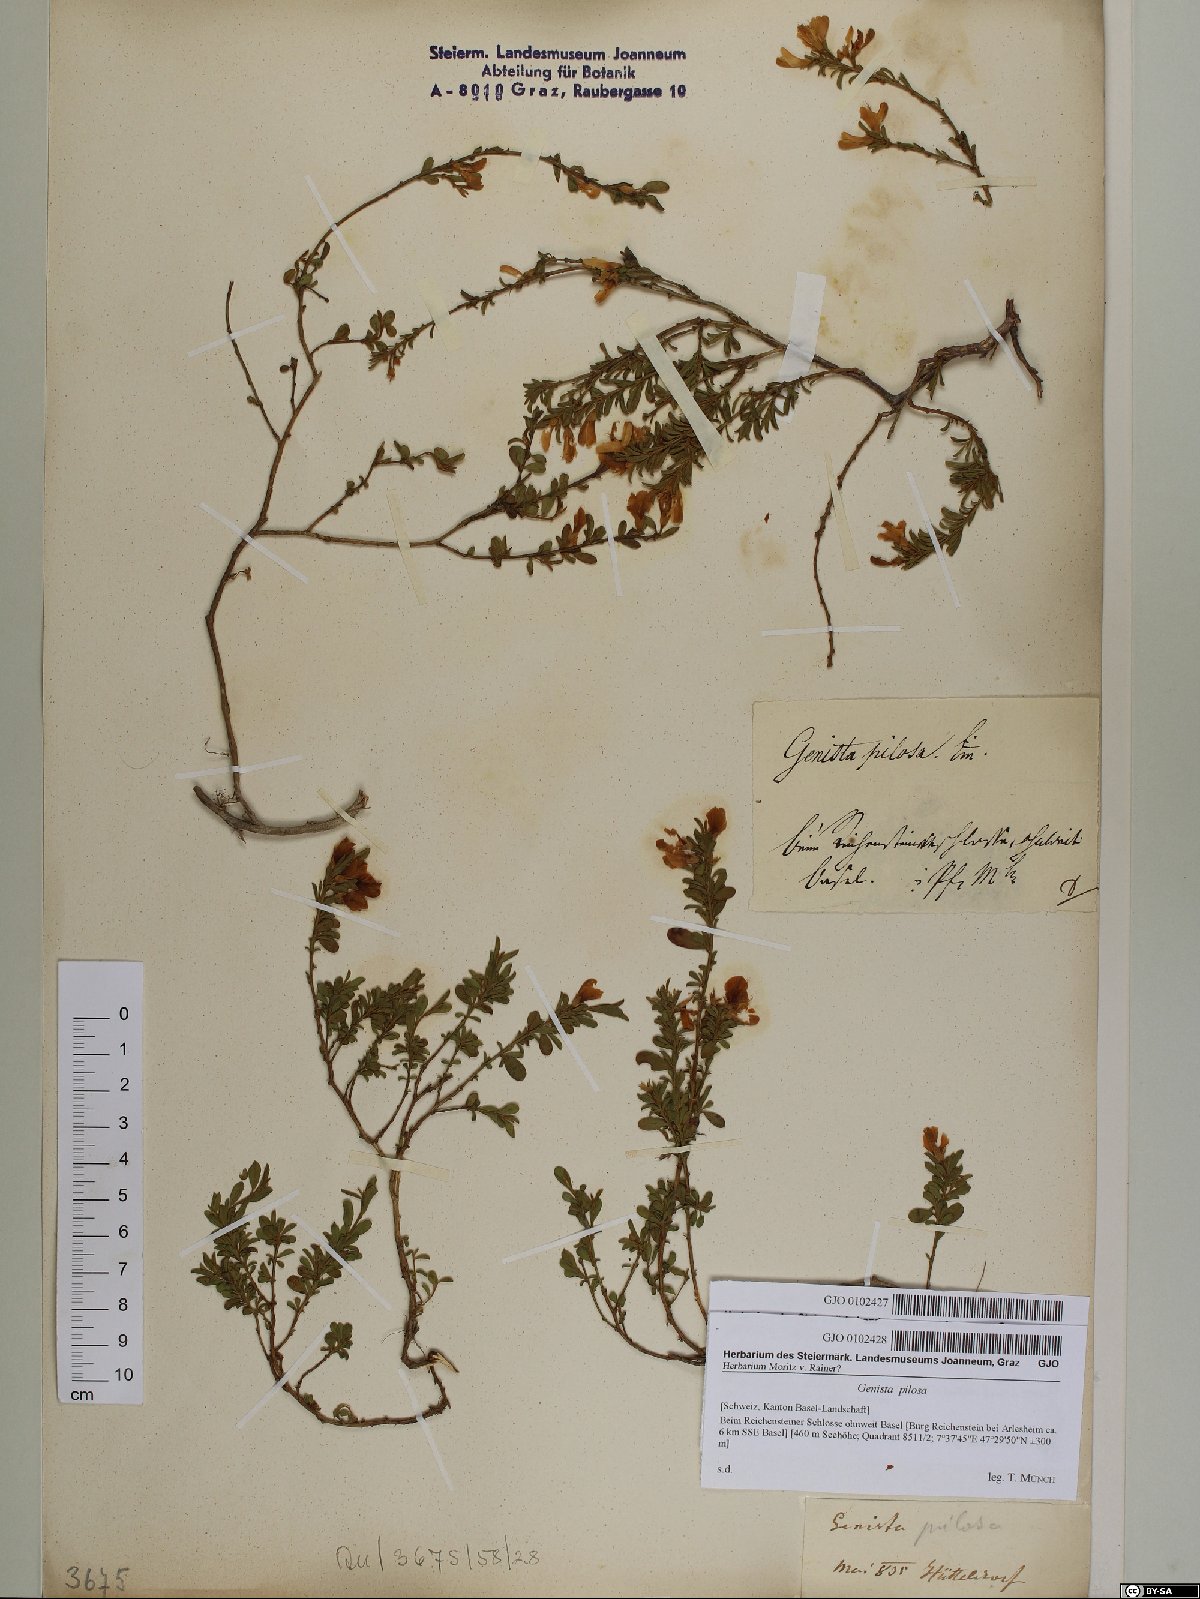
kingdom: Plantae
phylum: Tracheophyta
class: Magnoliopsida
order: Fabales
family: Fabaceae
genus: Genista
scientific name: Genista pilosa
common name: Hairy greenweed
